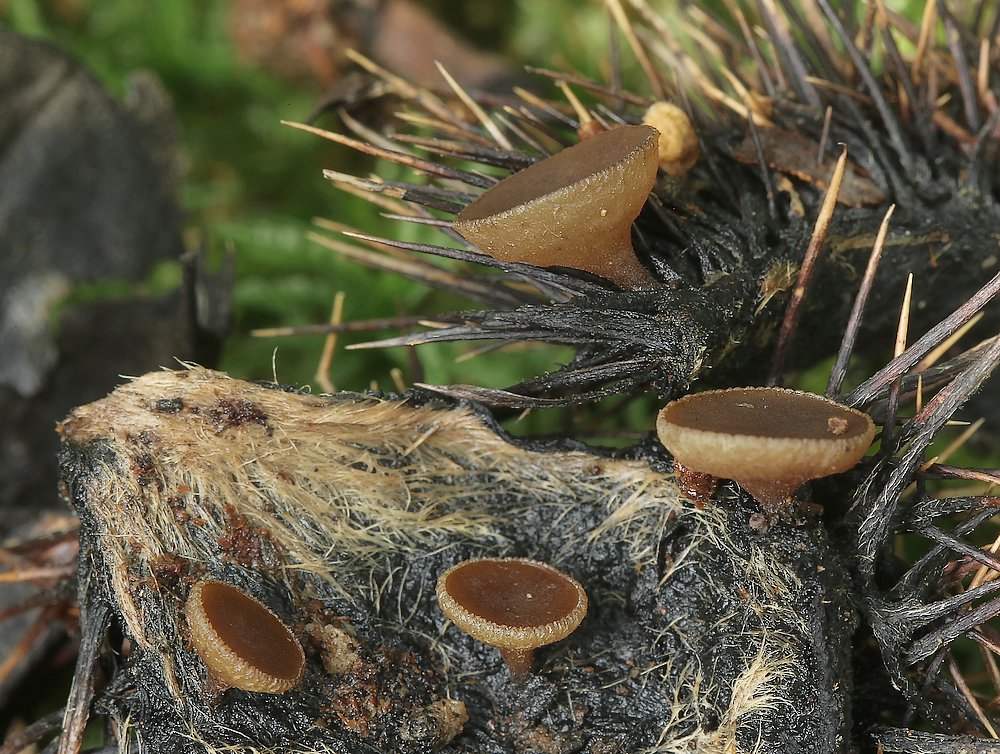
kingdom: Fungi
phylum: Ascomycota
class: Leotiomycetes
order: Helotiales
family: Rutstroemiaceae
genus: Lanzia
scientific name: Lanzia echinophila
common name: kastanie-brunskive
